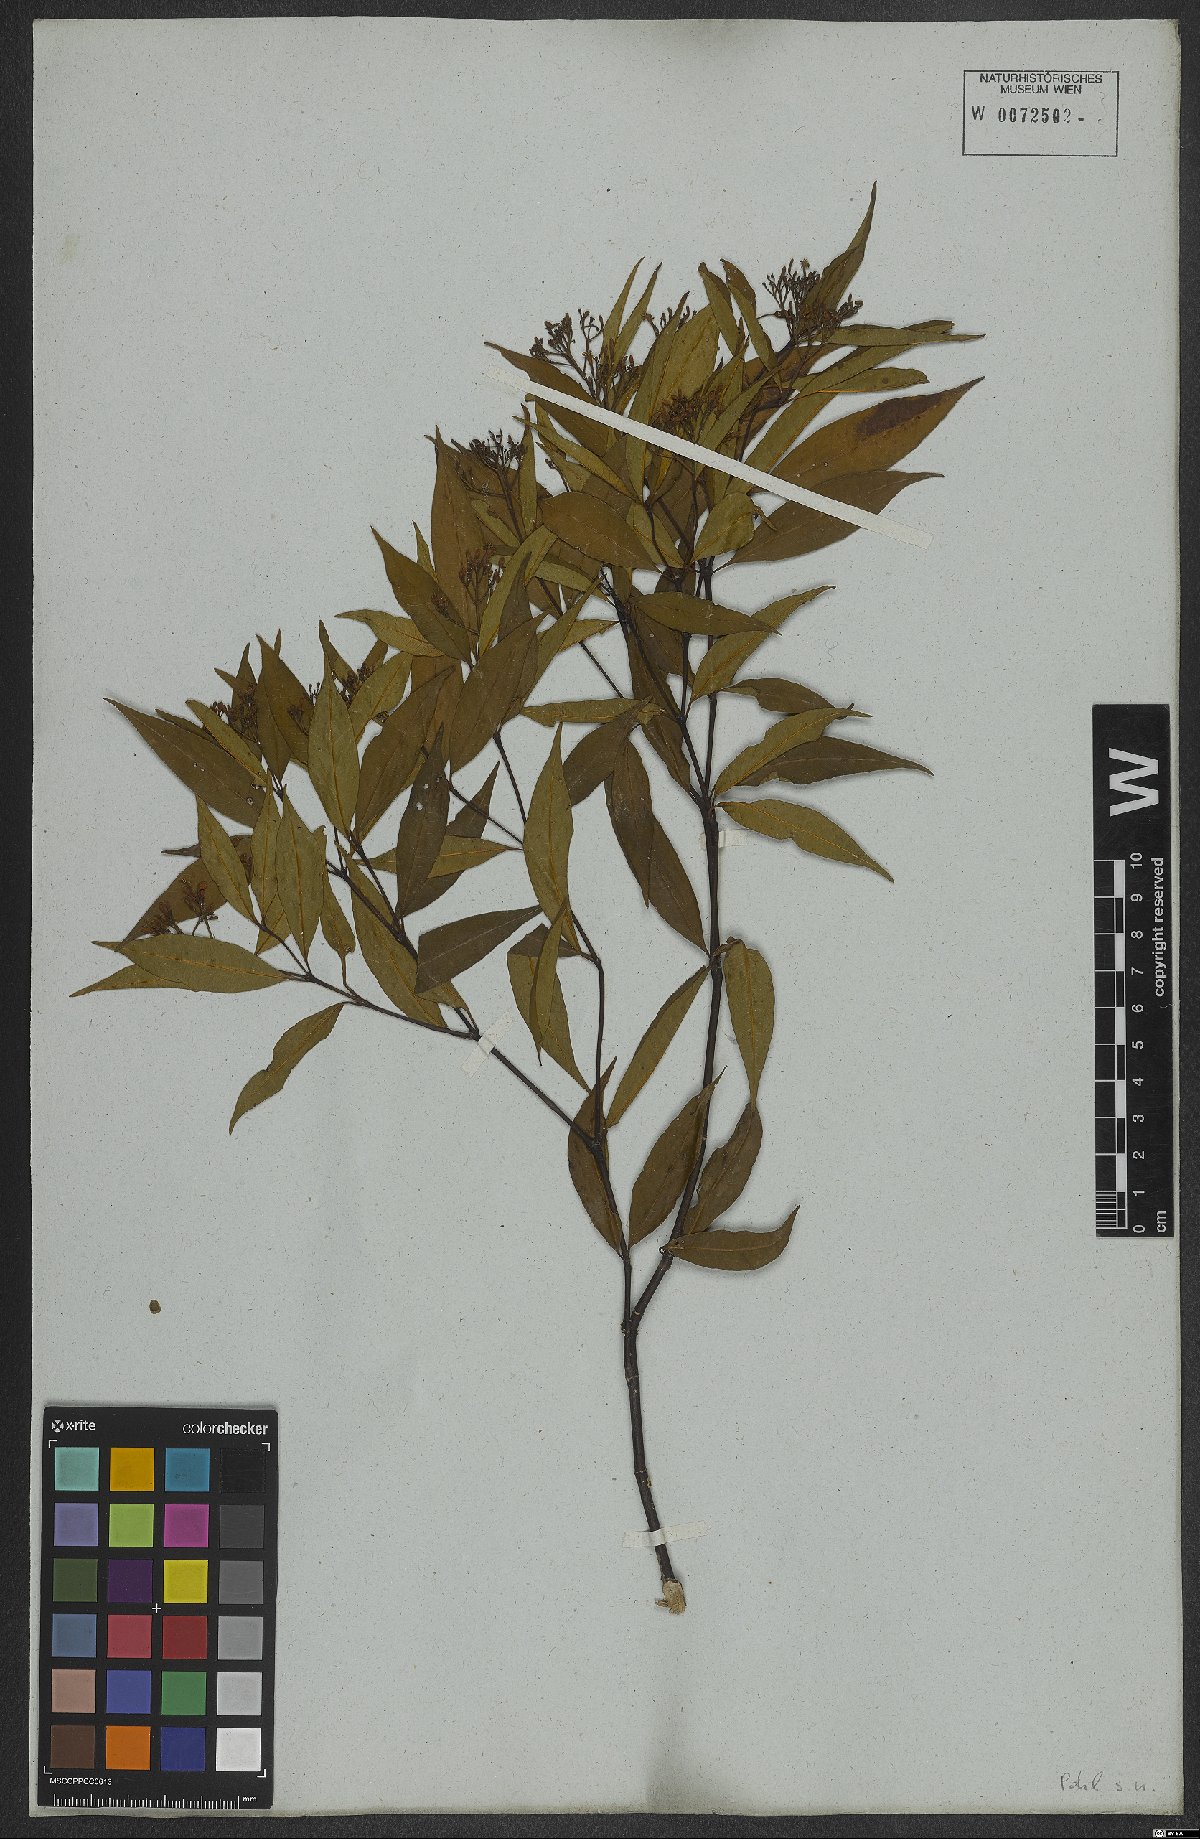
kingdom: Plantae
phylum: Tracheophyta
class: Magnoliopsida
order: Gentianales
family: Rubiaceae
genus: Psychotria
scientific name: Psychotria leiocarpa
